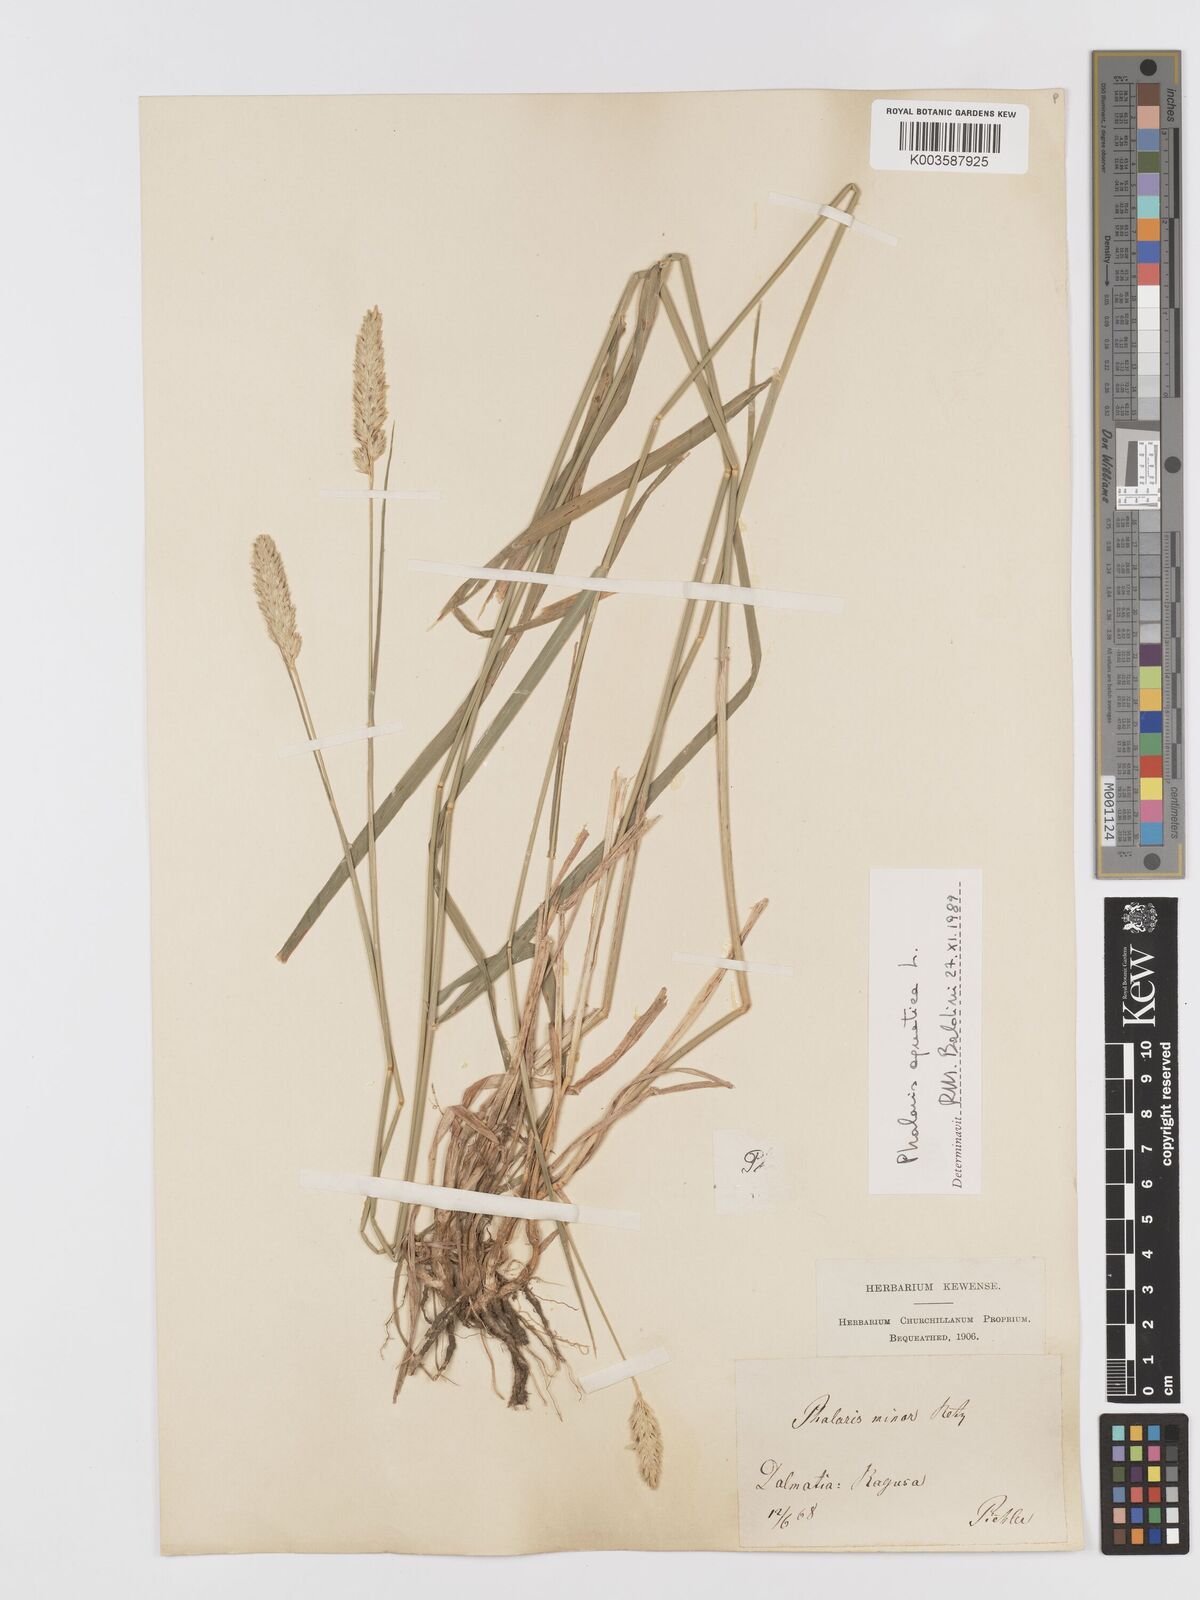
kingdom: Plantae
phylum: Tracheophyta
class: Liliopsida
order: Poales
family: Poaceae
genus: Phalaris
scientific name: Phalaris
